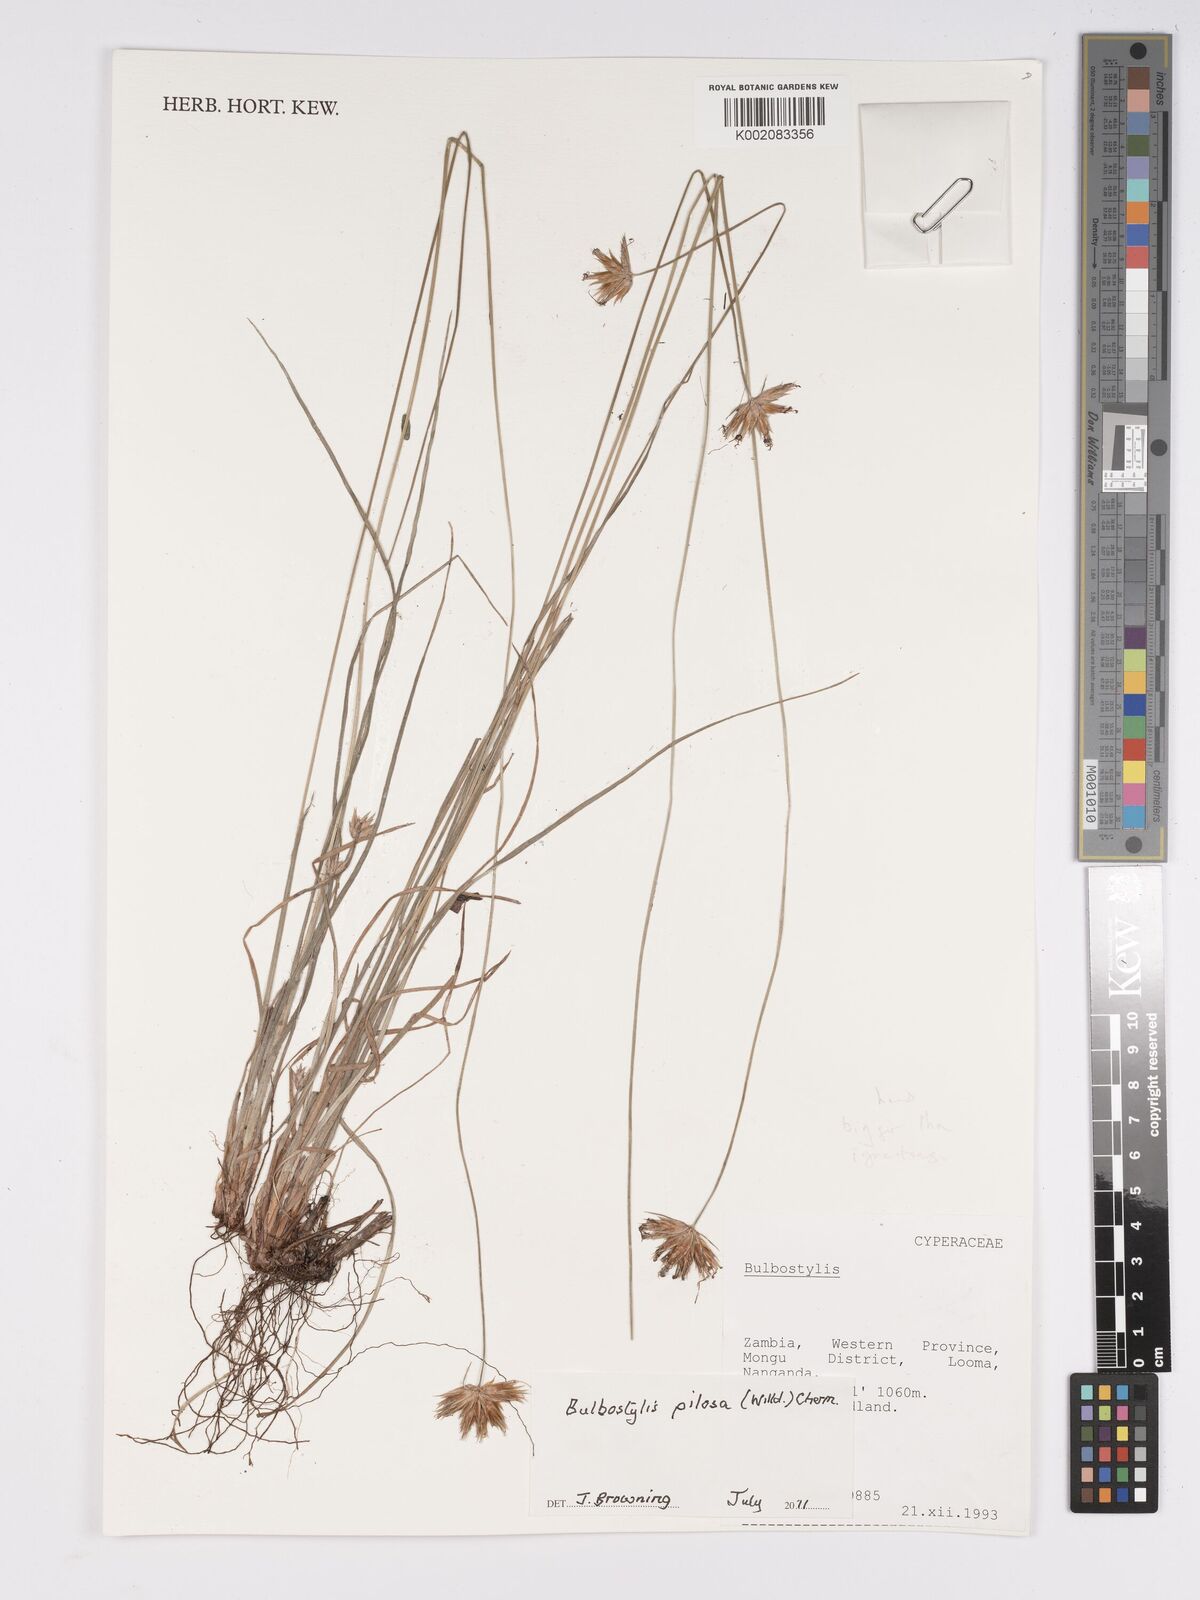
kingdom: Plantae
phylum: Tracheophyta
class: Liliopsida
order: Poales
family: Cyperaceae
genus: Bulbostylis
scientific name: Bulbostylis pilosa
